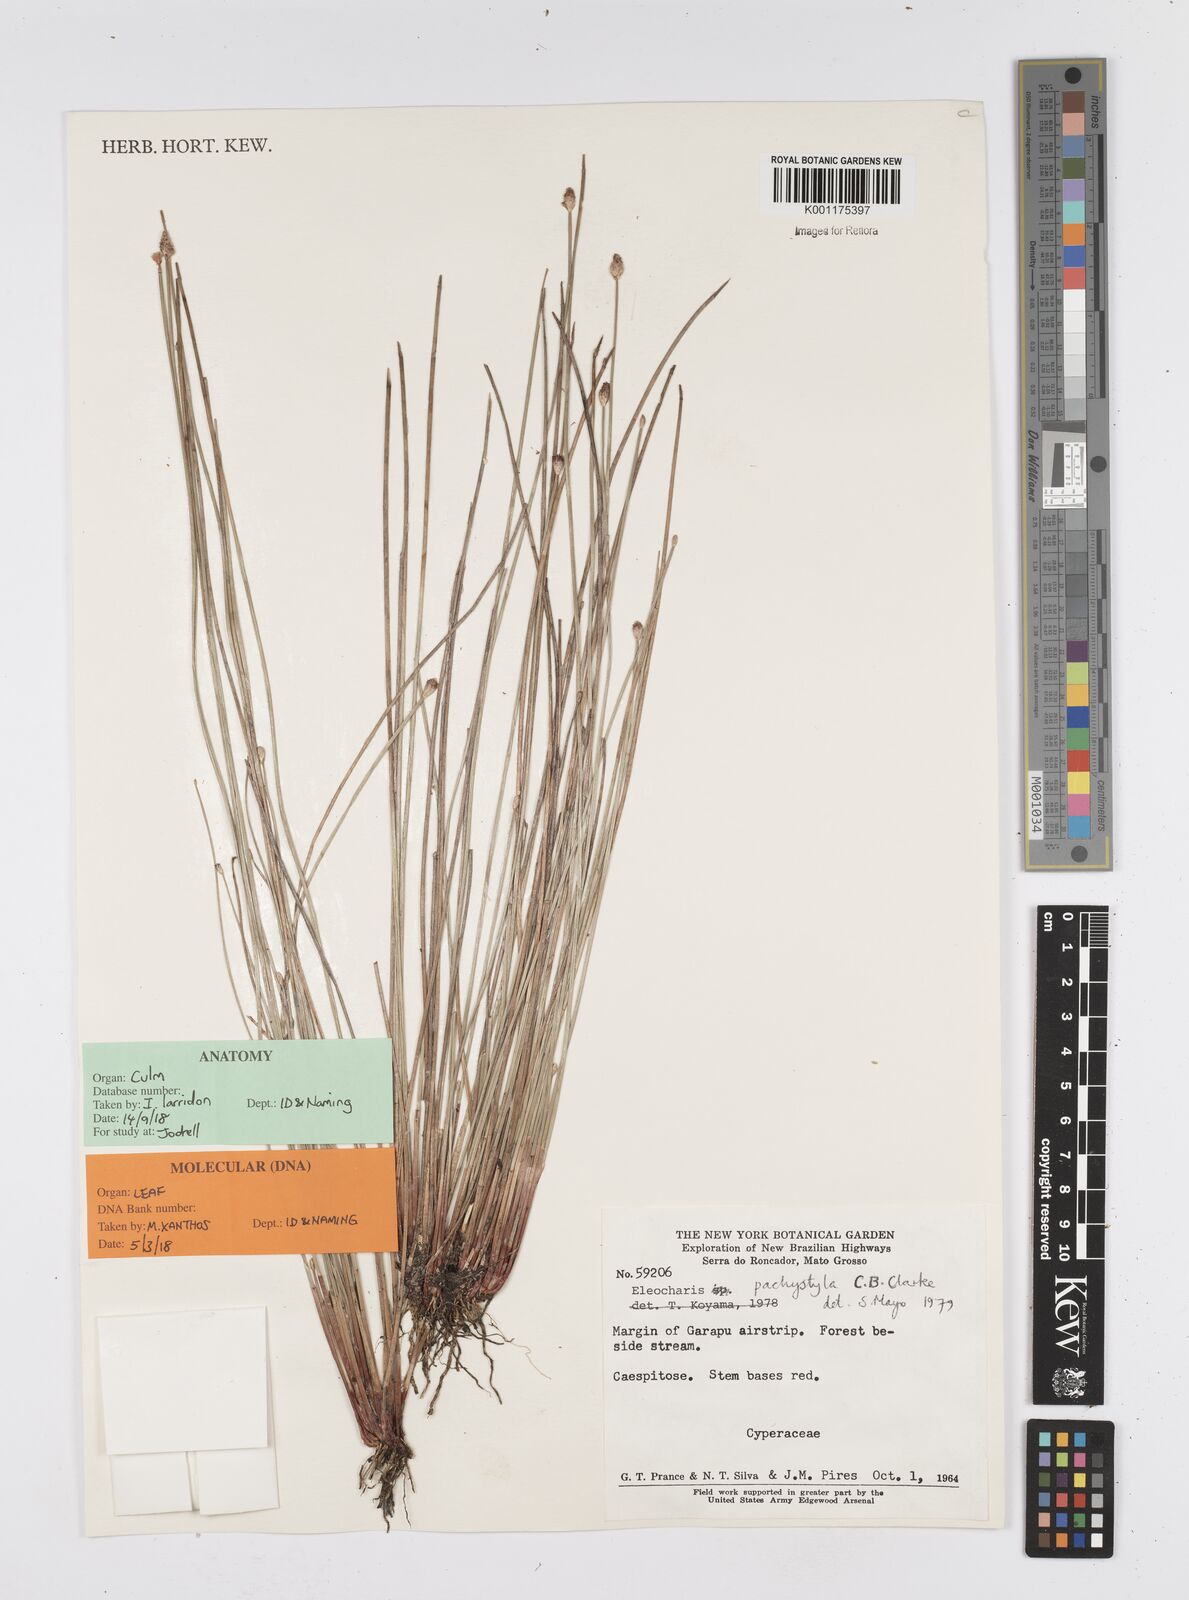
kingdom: Plantae
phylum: Tracheophyta
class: Liliopsida
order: Poales
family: Cyperaceae
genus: Eleocharis
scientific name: Eleocharis pachystyla
